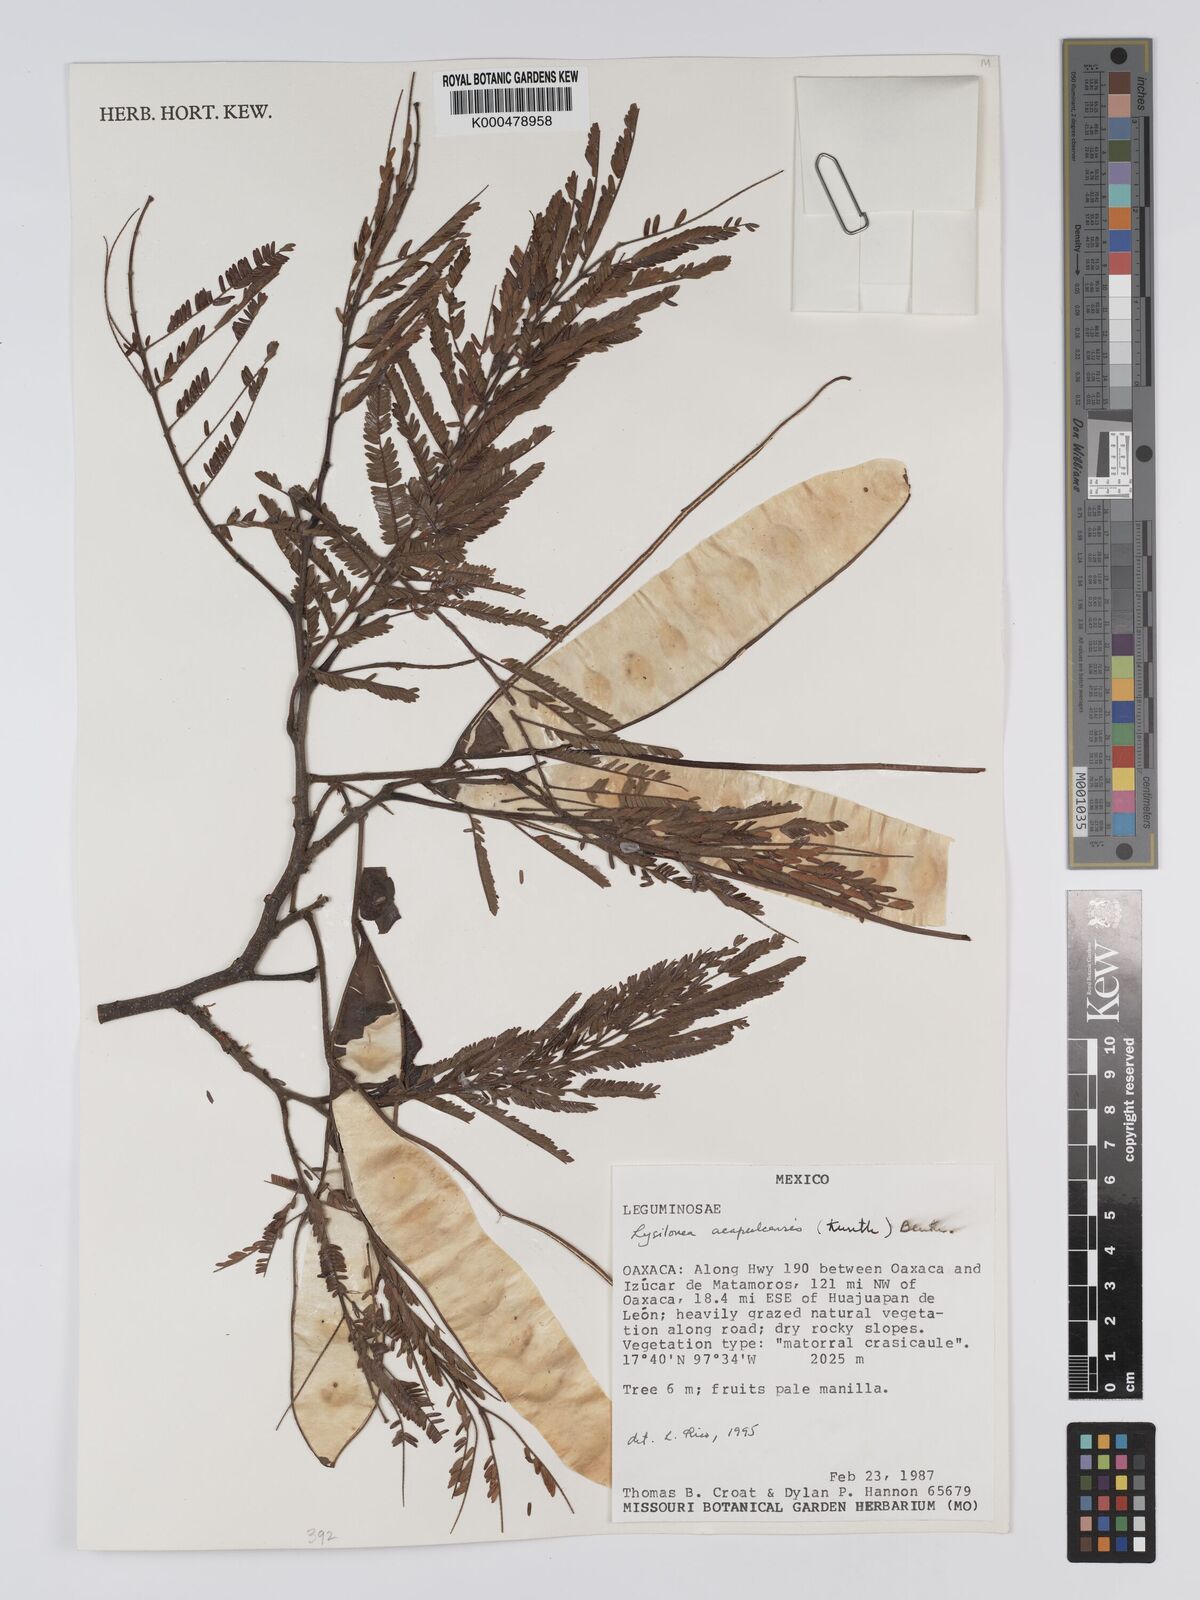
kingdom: Plantae
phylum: Tracheophyta
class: Magnoliopsida
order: Fabales
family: Fabaceae
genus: Lysiloma
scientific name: Lysiloma
